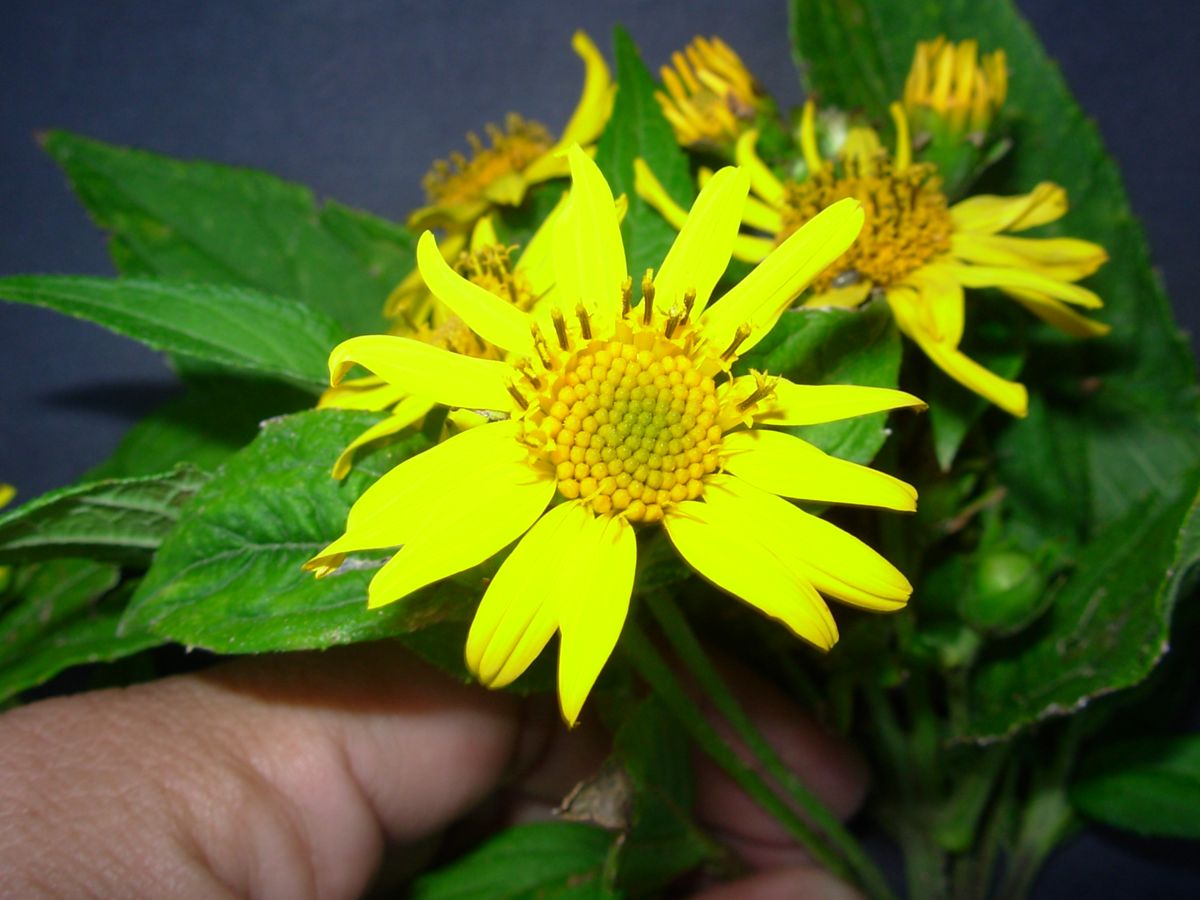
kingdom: Plantae
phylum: Tracheophyta
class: Magnoliopsida
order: Asterales
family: Asteraceae
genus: Lasianthaea
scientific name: Lasianthaea fruticosa
